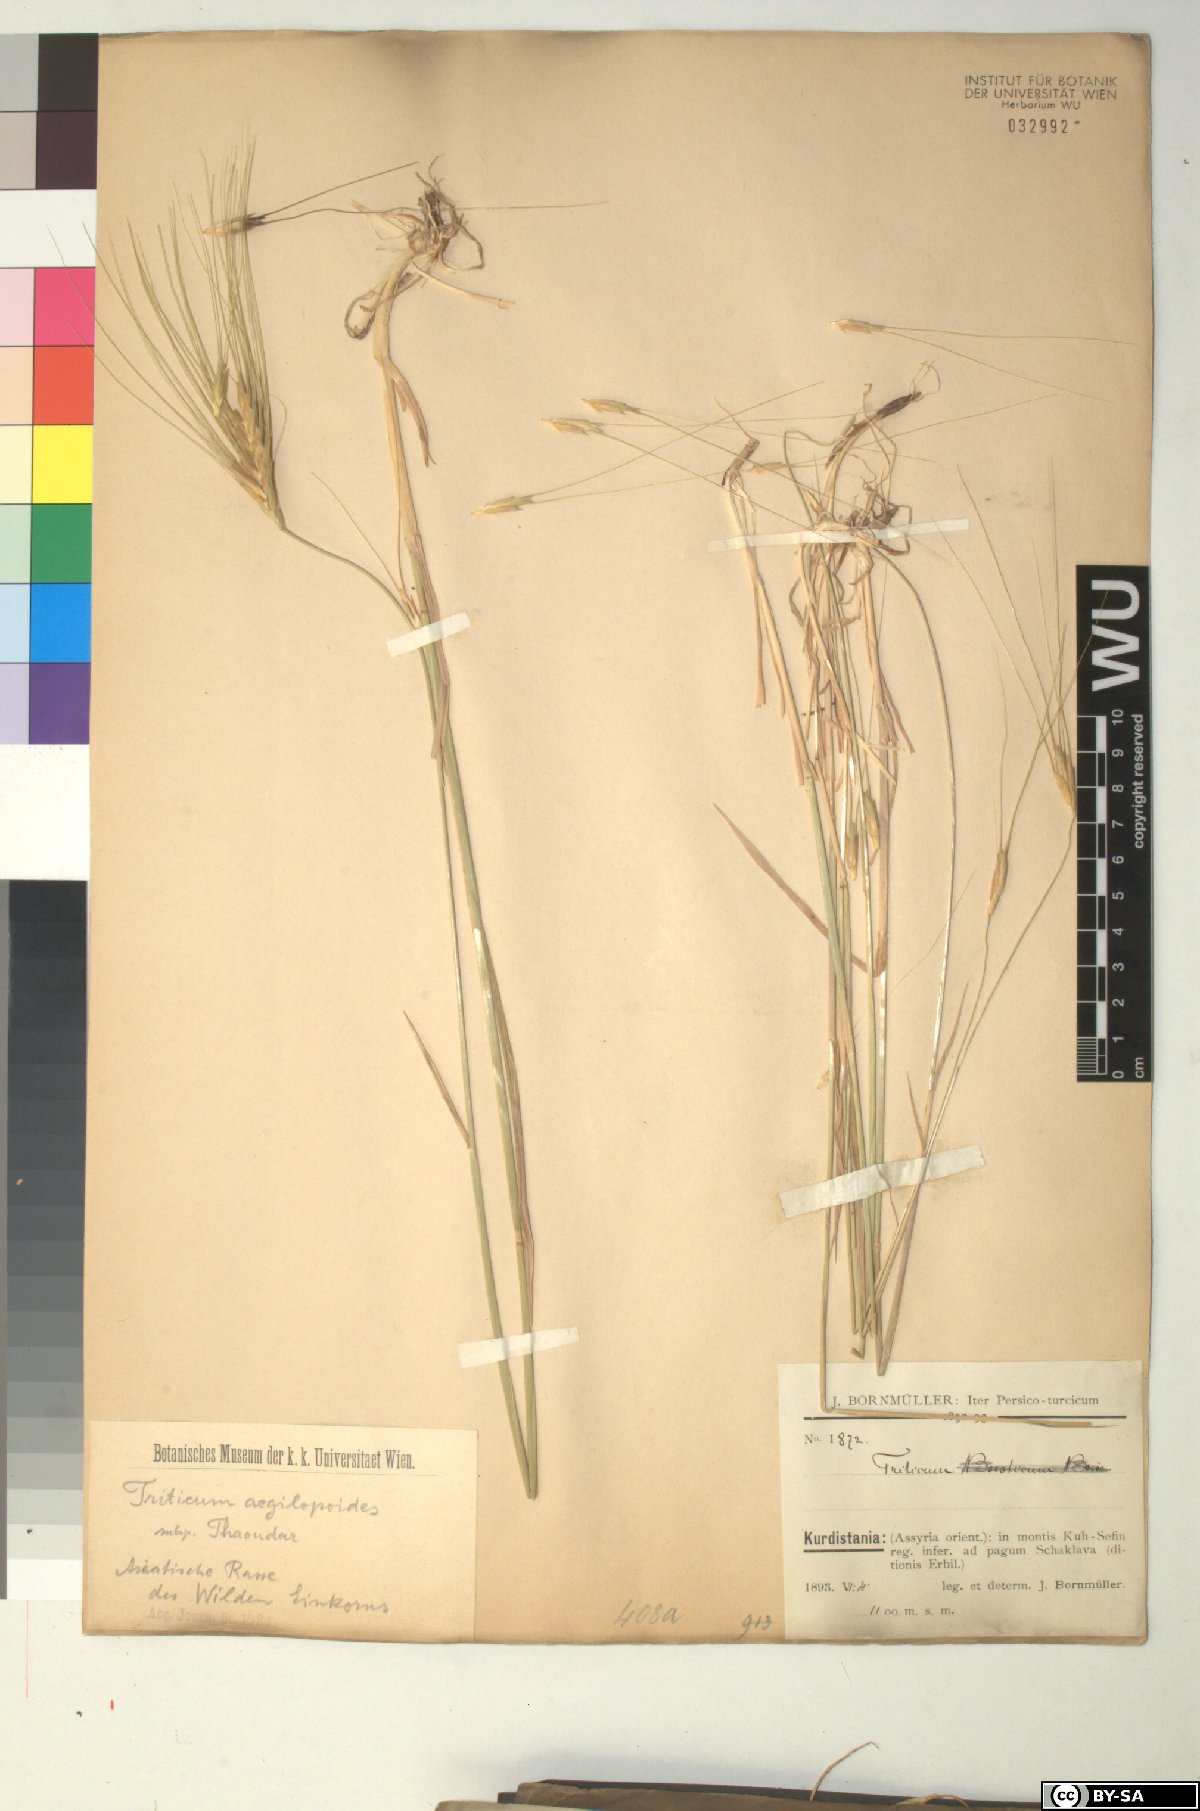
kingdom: Plantae
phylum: Tracheophyta
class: Liliopsida
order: Poales
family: Poaceae
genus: Triticum
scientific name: Triticum monococcum
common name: Einkorn
